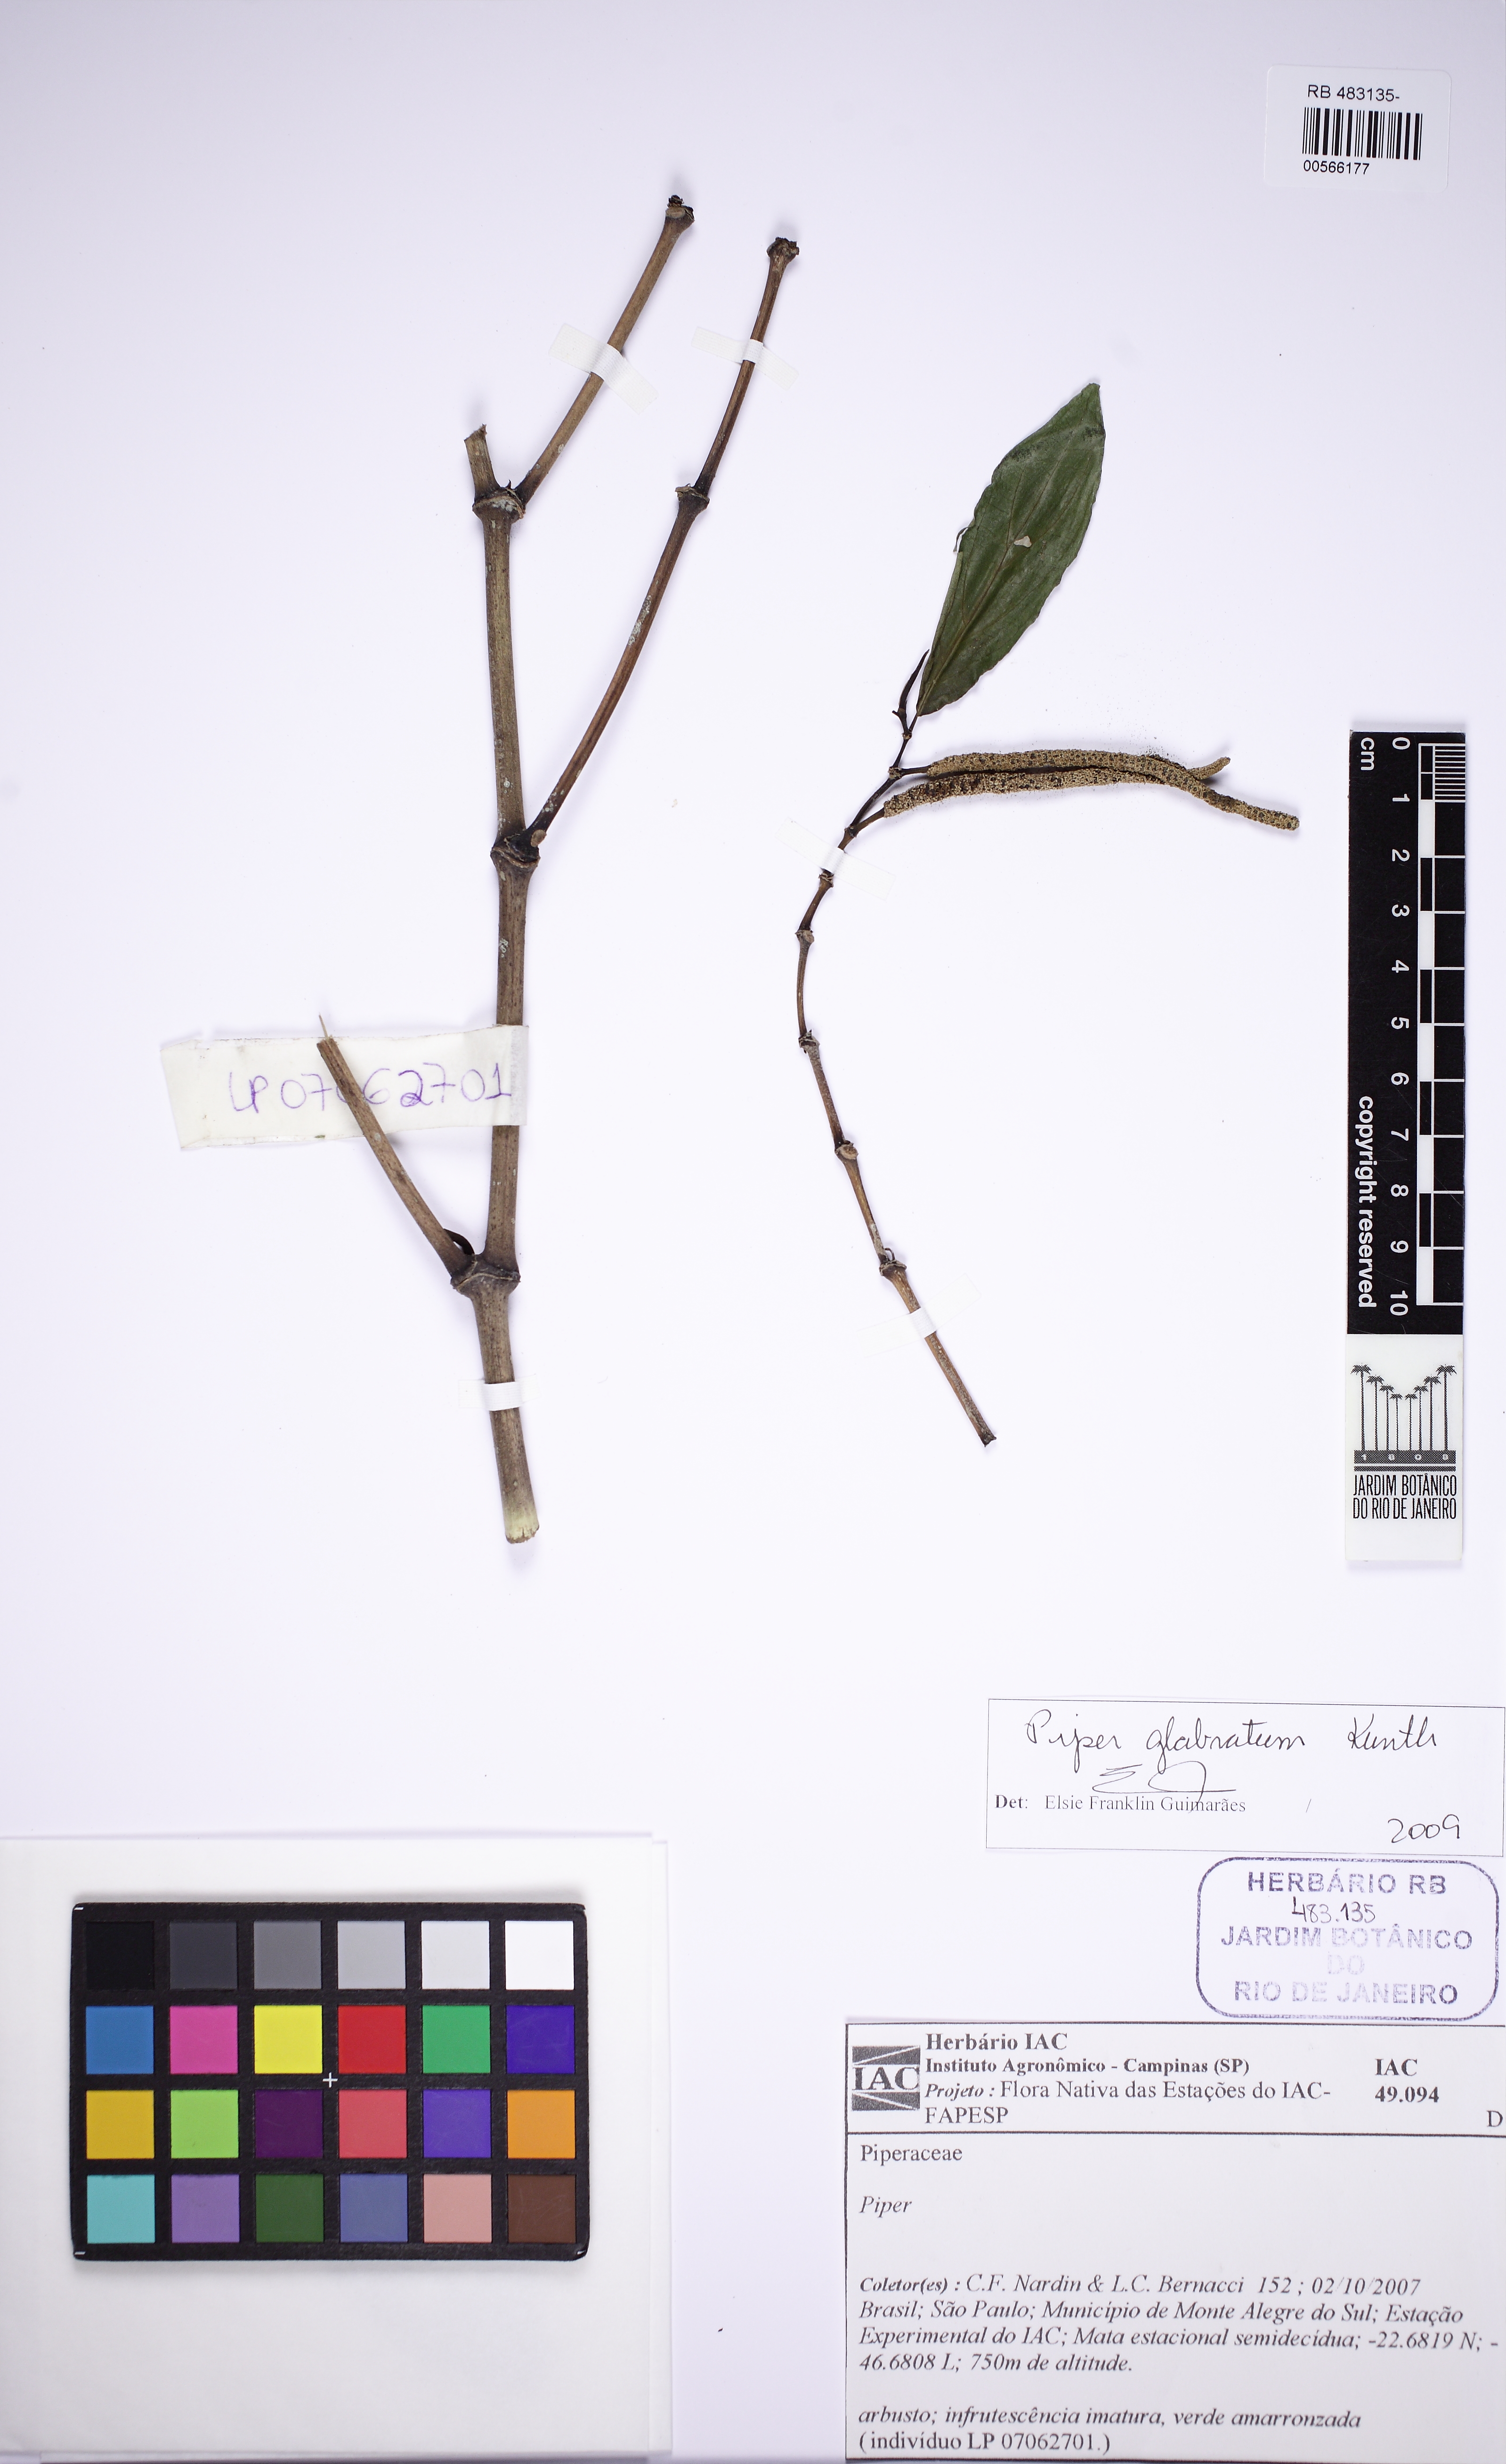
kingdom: Plantae
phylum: Tracheophyta
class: Magnoliopsida
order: Piperales
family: Piperaceae
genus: Piper
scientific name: Piper glabratum
